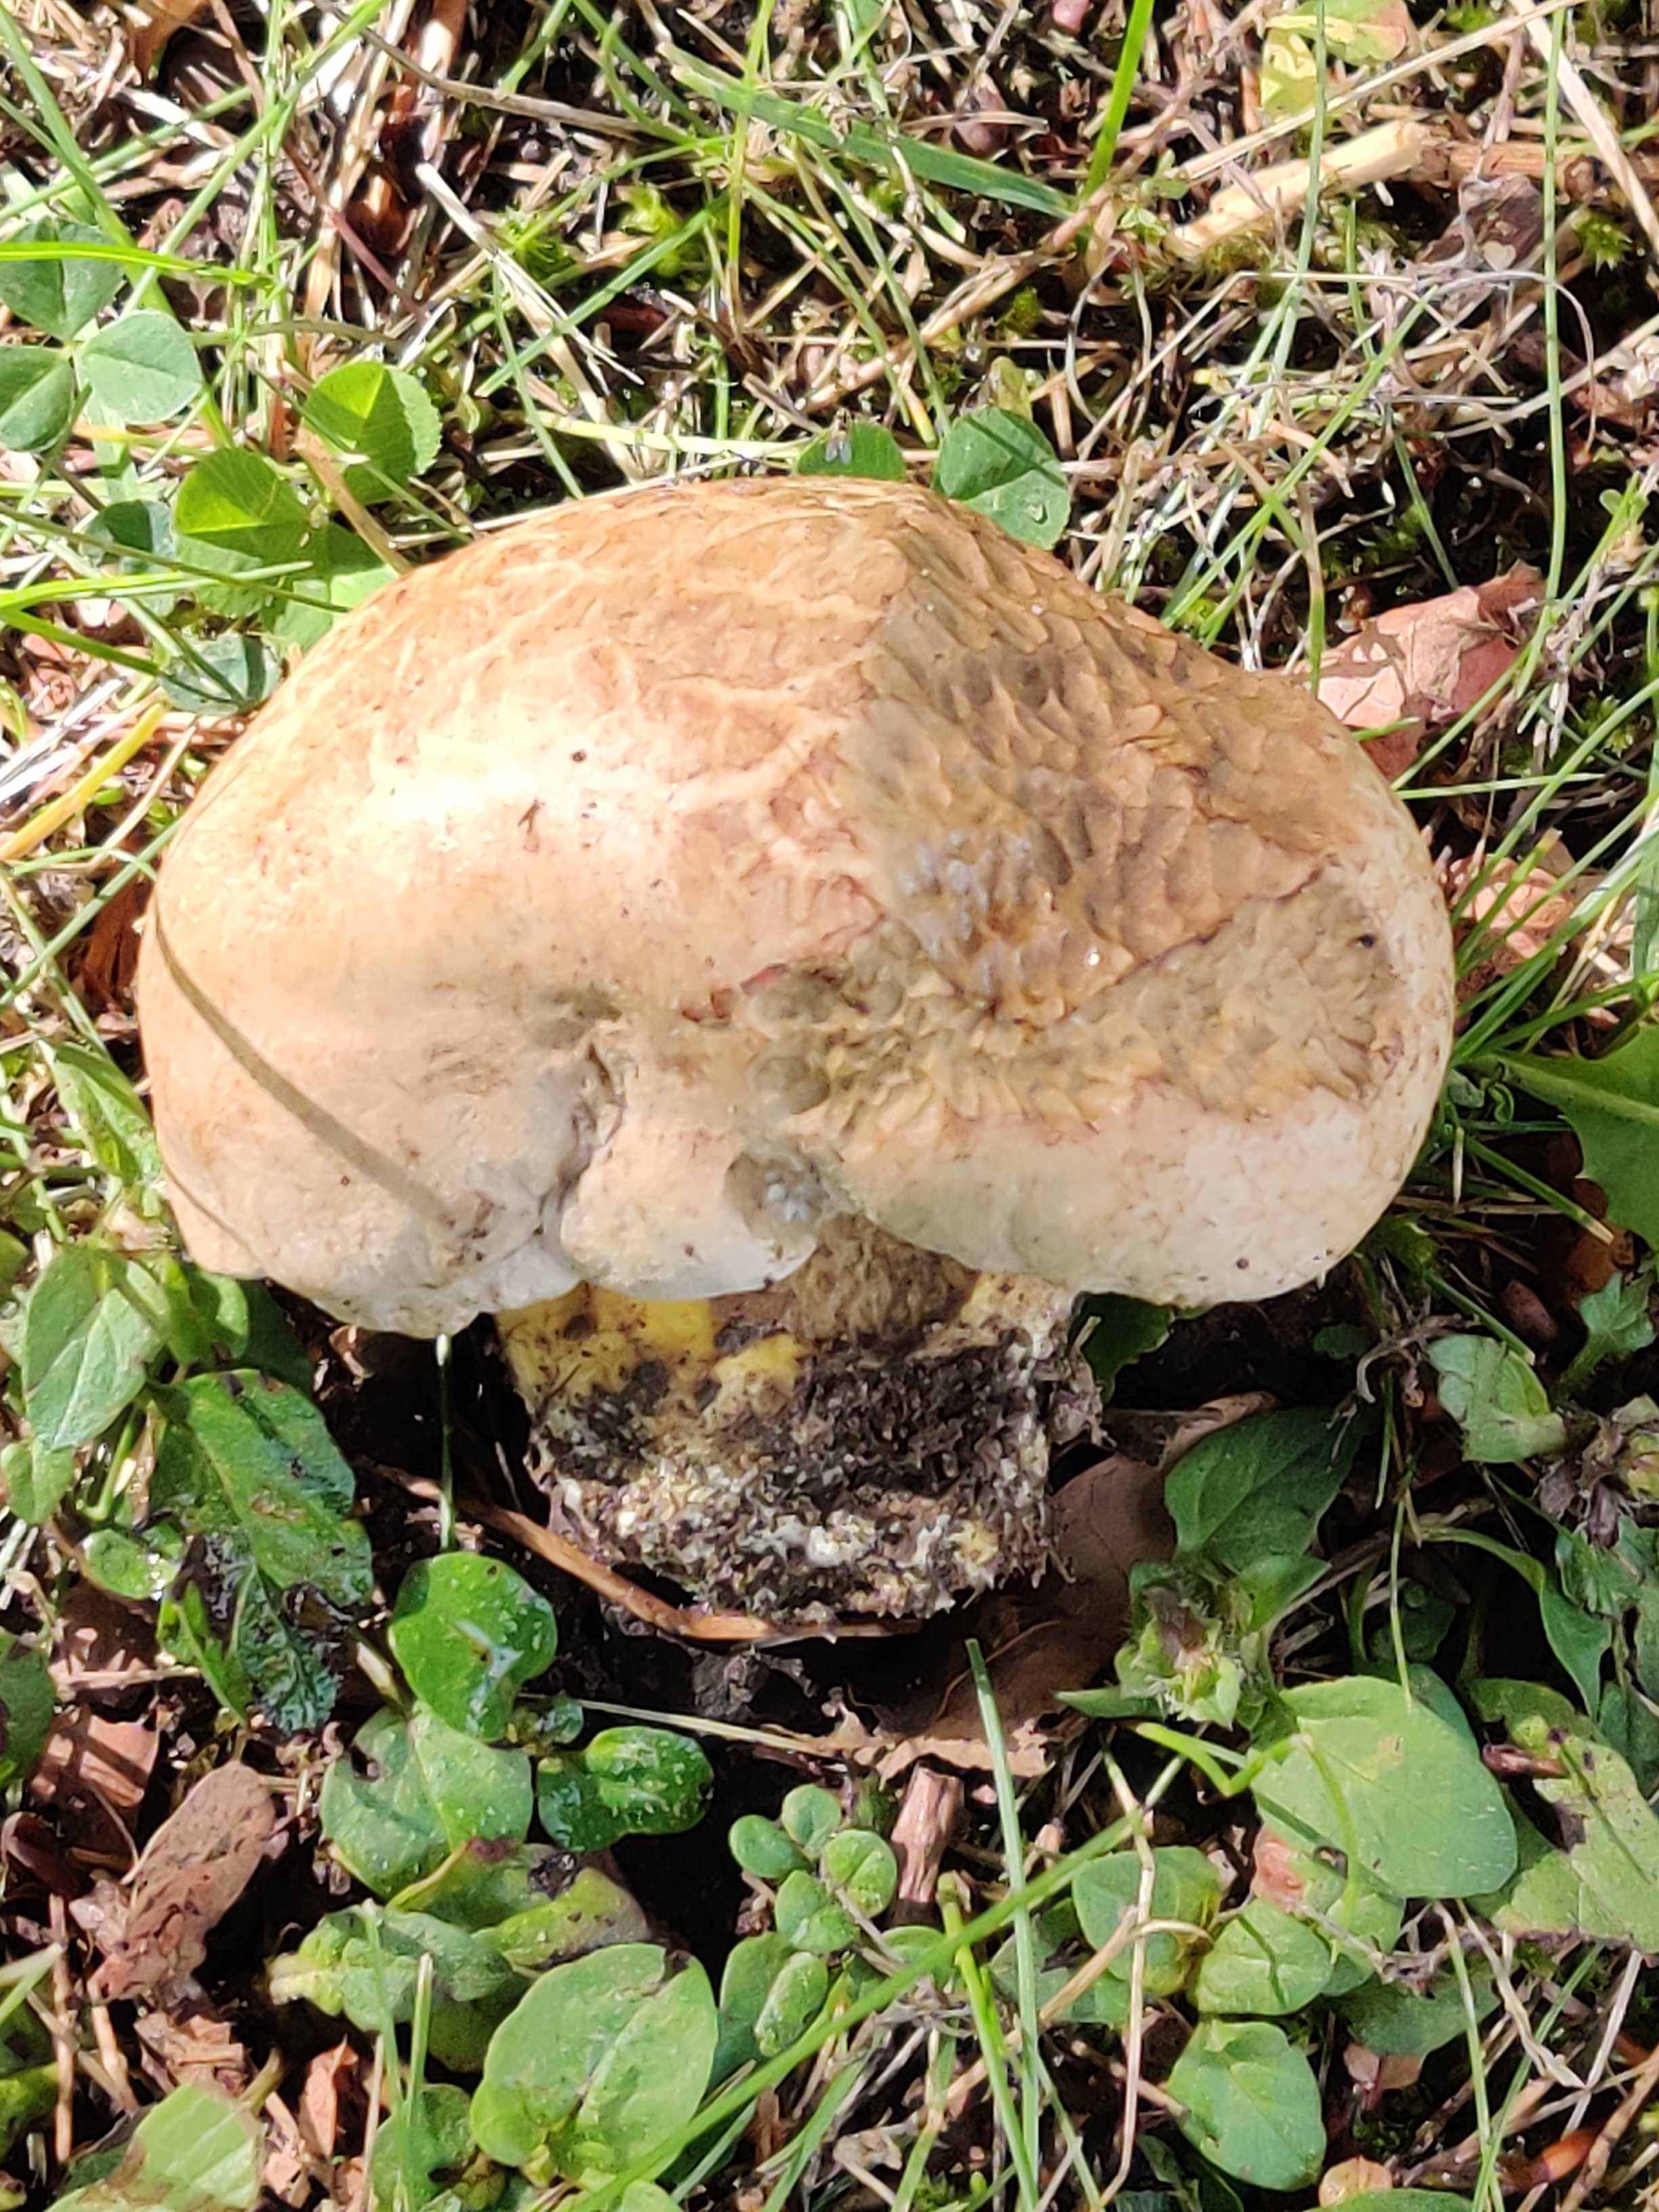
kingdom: Fungi
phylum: Basidiomycota
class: Agaricomycetes
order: Boletales
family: Boletaceae
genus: Caloboletus
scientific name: Caloboletus radicans
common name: rod-rørhat
